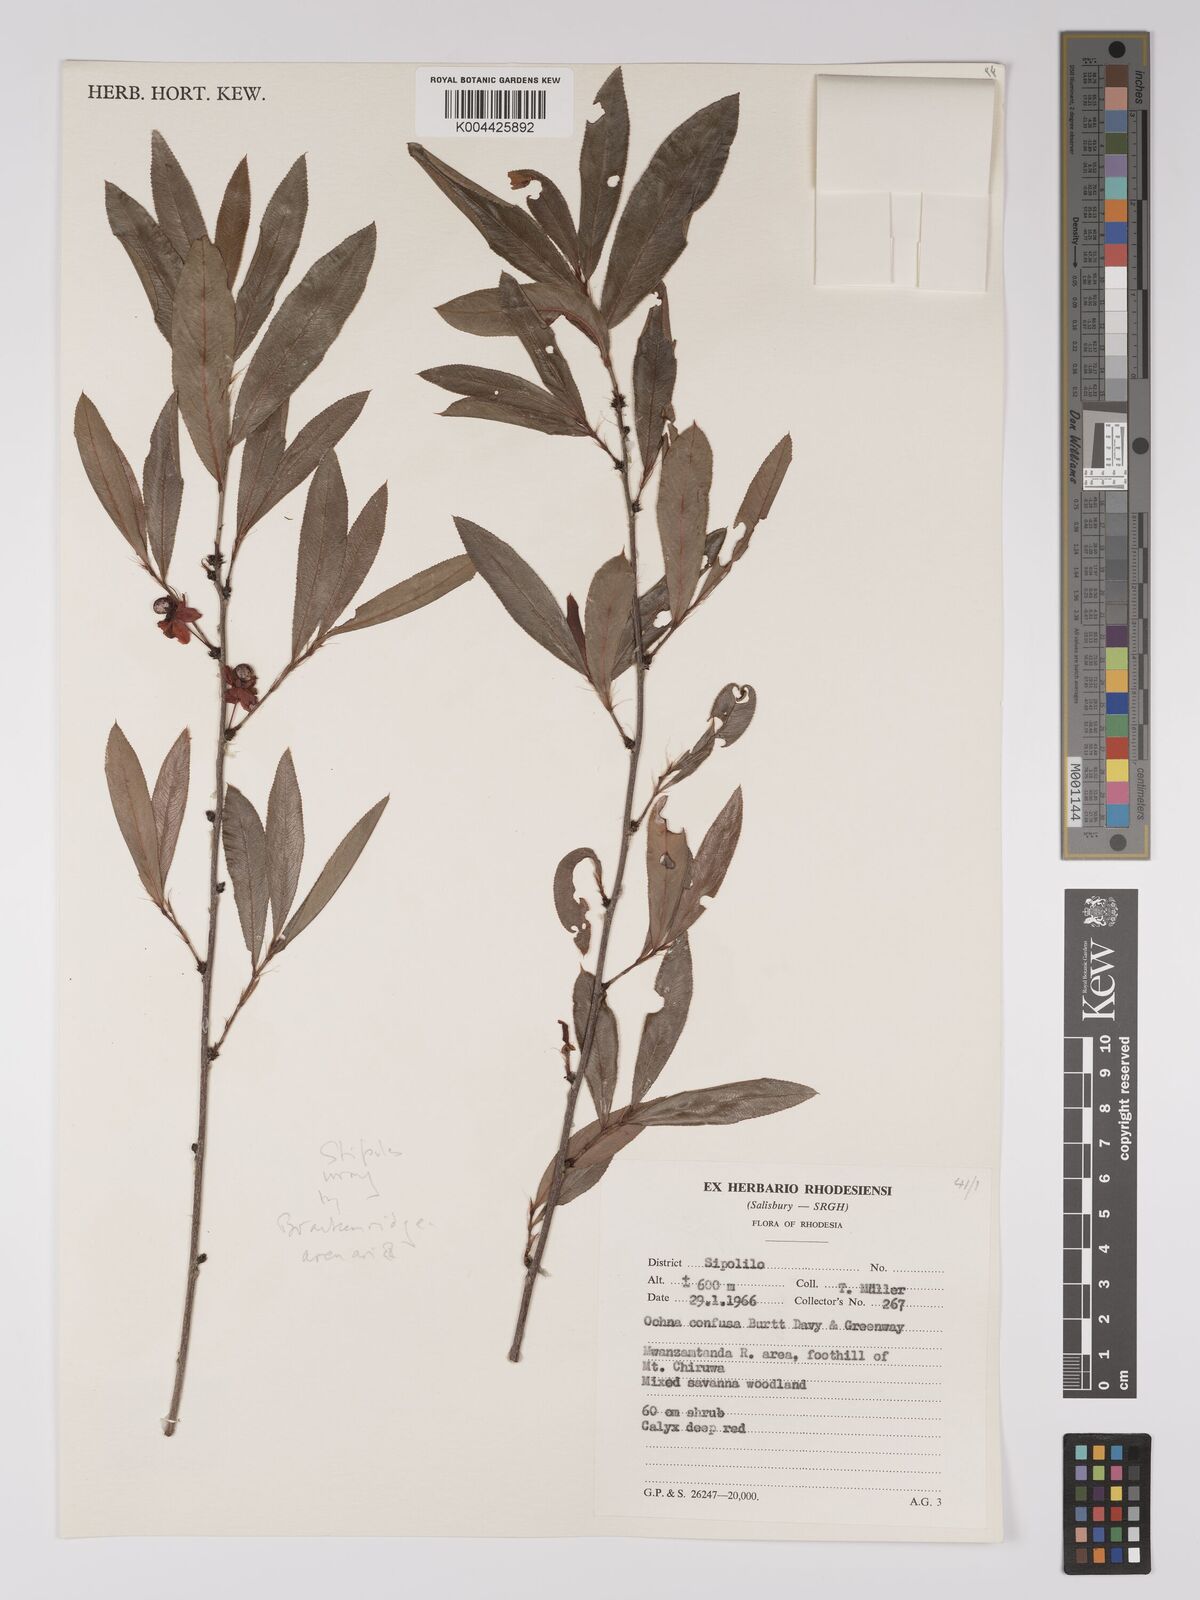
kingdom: Plantae
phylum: Tracheophyta
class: Magnoliopsida
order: Malpighiales
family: Ochnaceae
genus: Ochna
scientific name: Ochna arenaria
